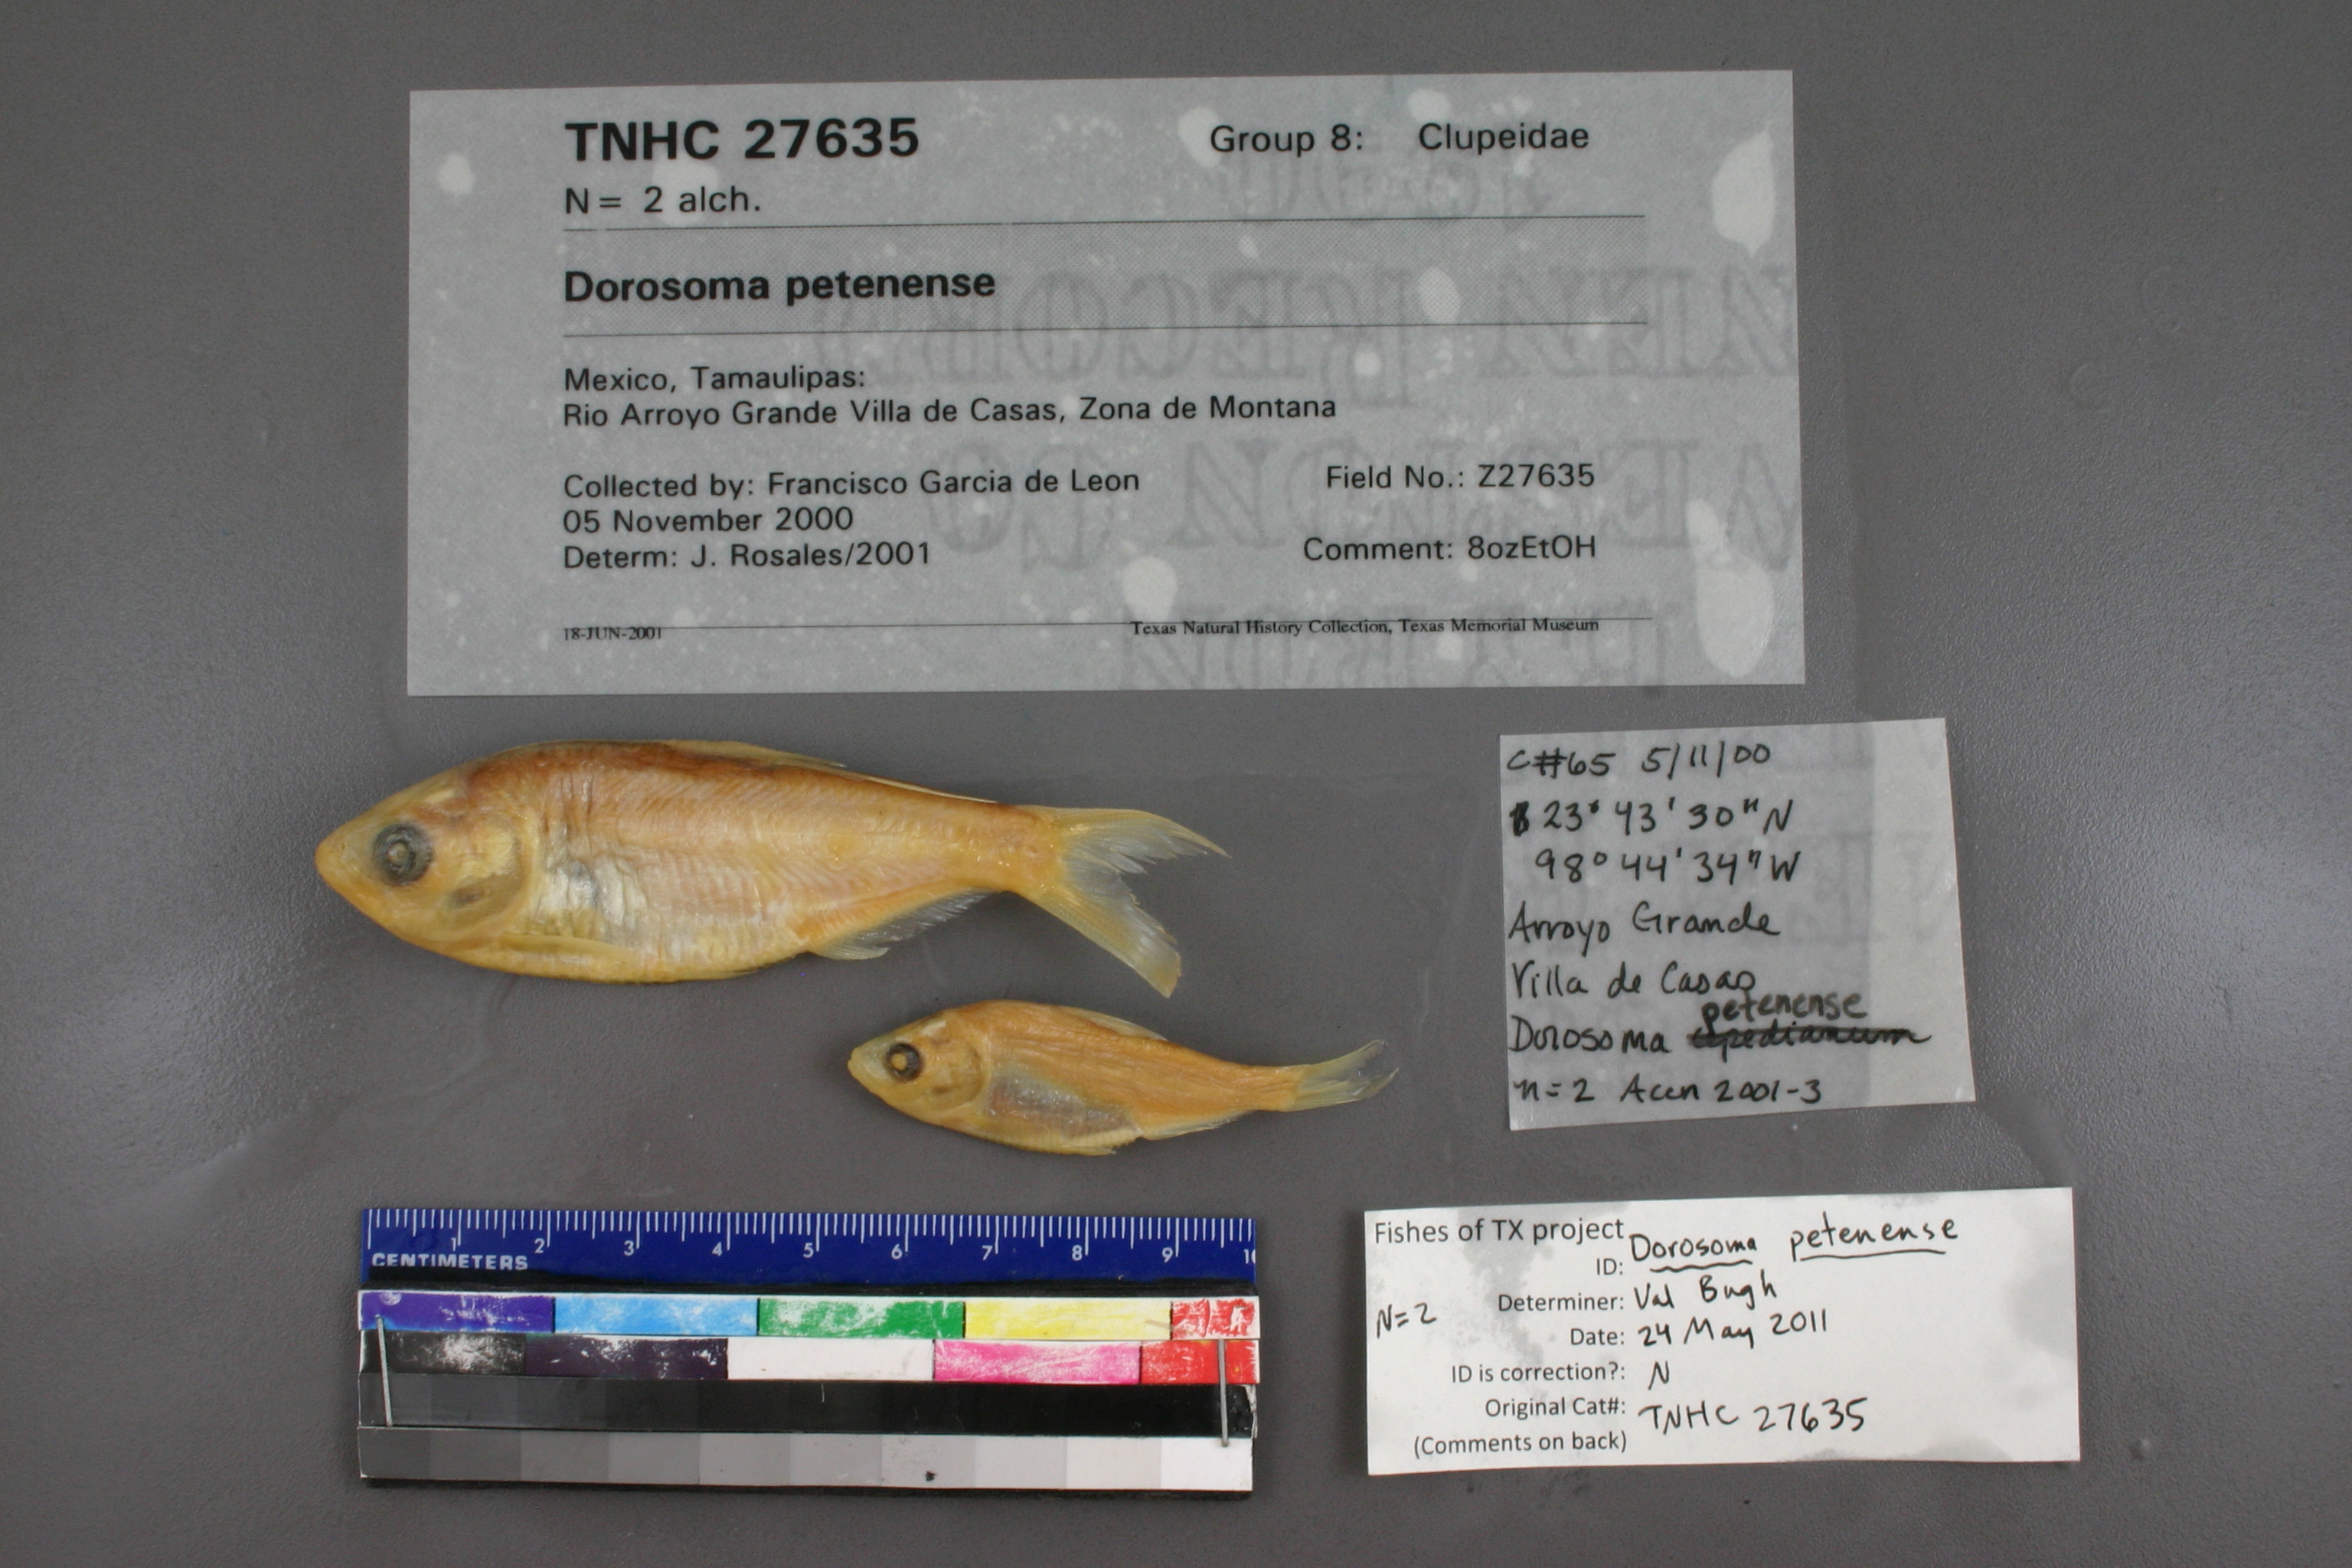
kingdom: Animalia
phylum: Chordata
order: Clupeiformes
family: Clupeidae
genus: Dorosoma
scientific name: Dorosoma petenense
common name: Threadfin shad
